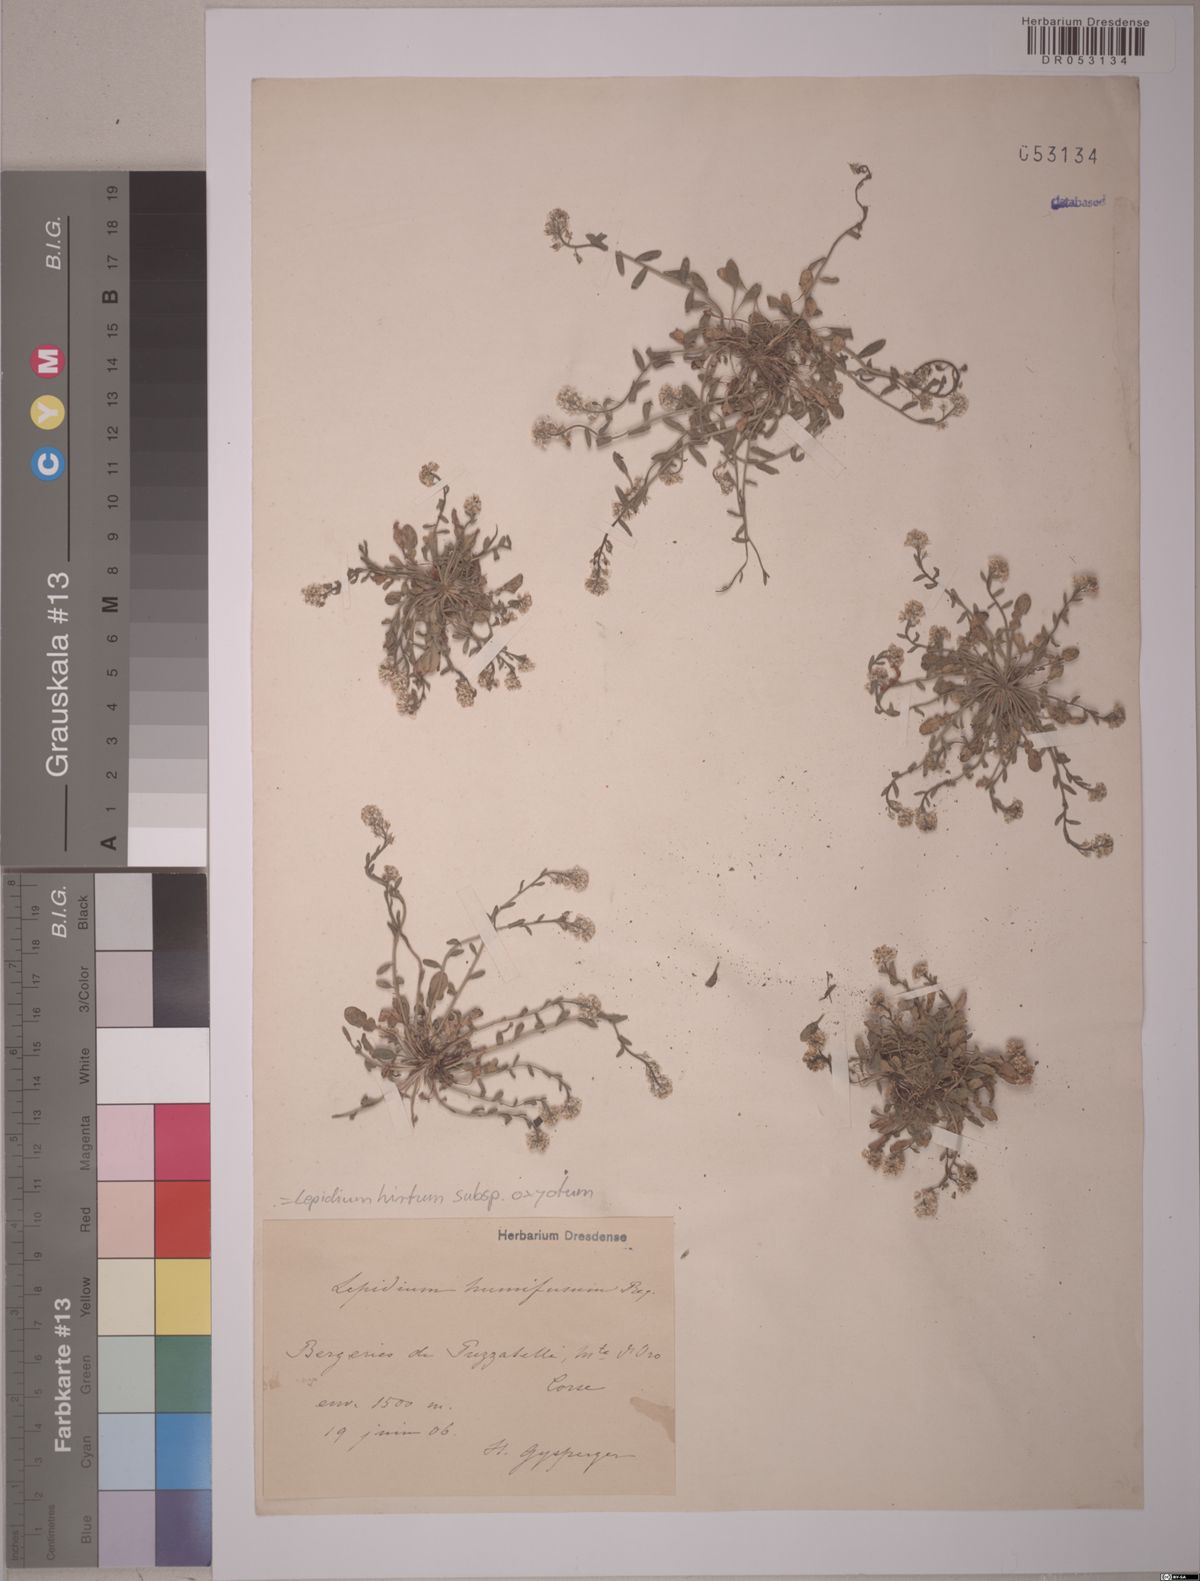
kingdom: Plantae
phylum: Tracheophyta
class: Magnoliopsida
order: Brassicales
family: Brassicaceae
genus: Lepidium
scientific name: Lepidium hirtum
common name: Mediterranean pepperweed
